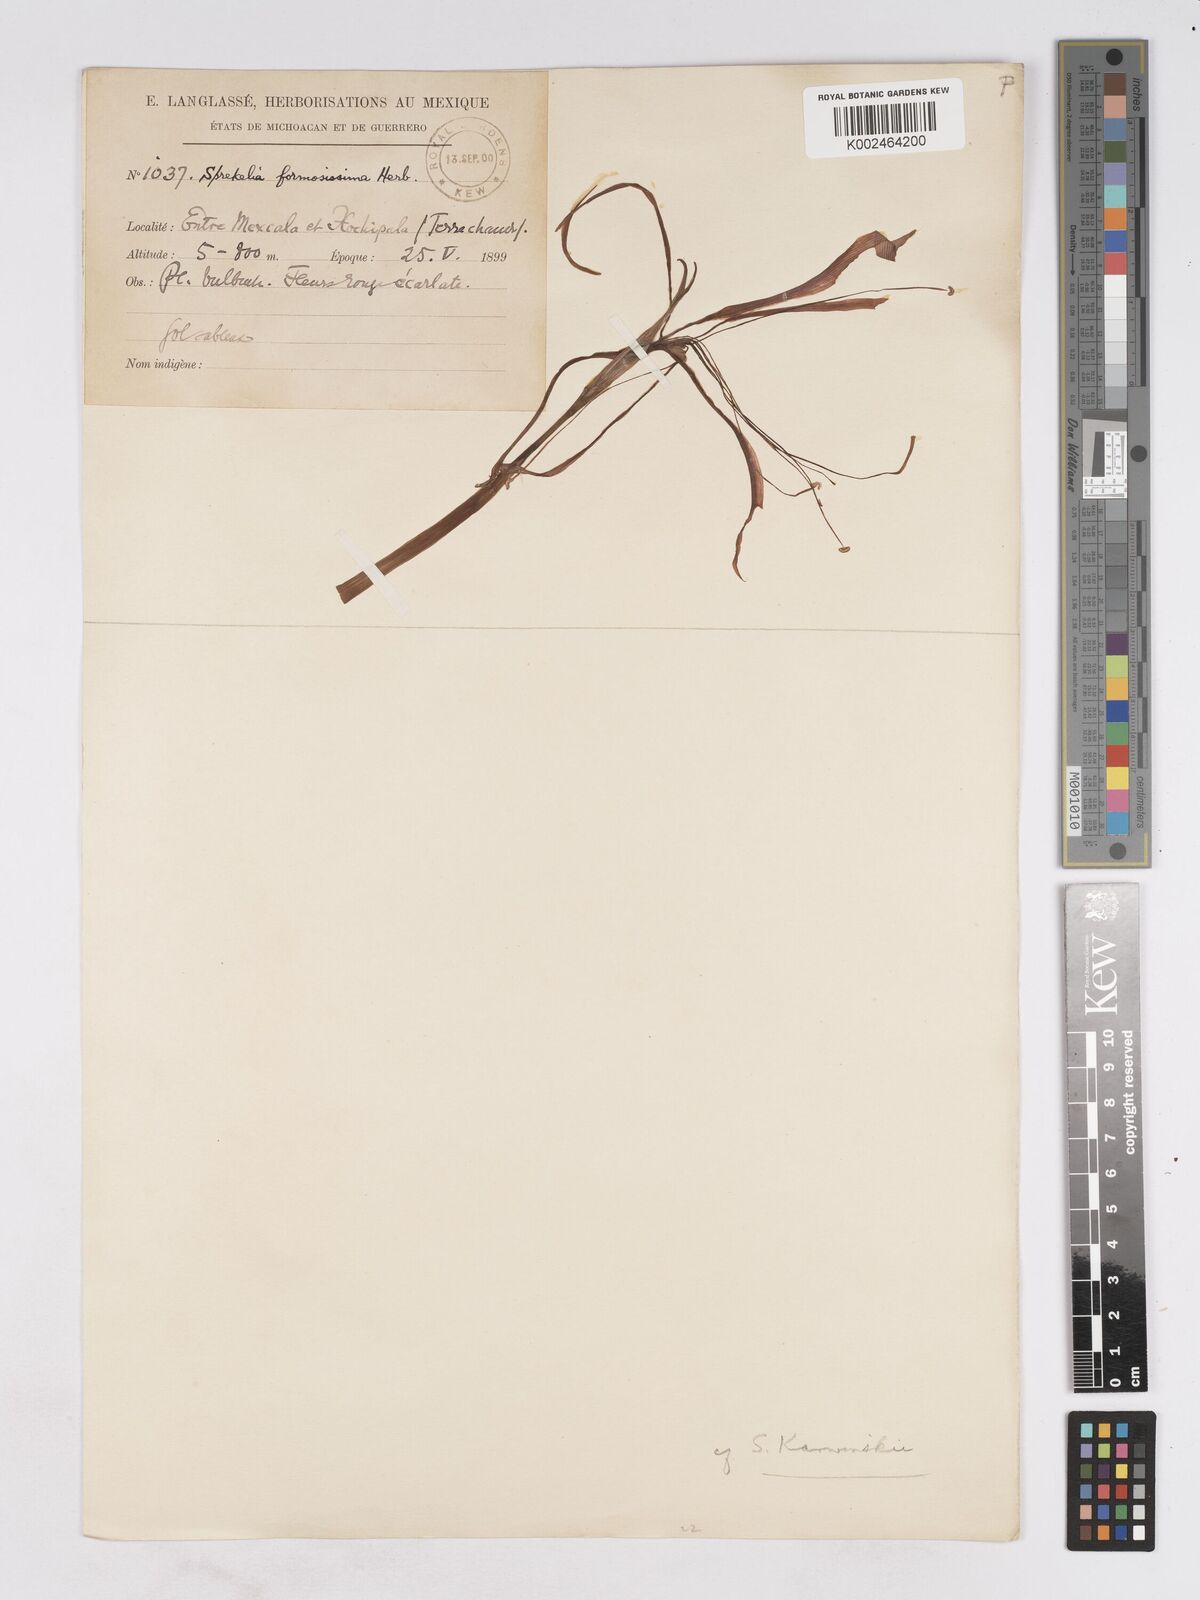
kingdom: Plantae
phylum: Tracheophyta
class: Liliopsida
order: Asparagales
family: Amaryllidaceae
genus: Sprekelia
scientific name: Sprekelia formosissima
